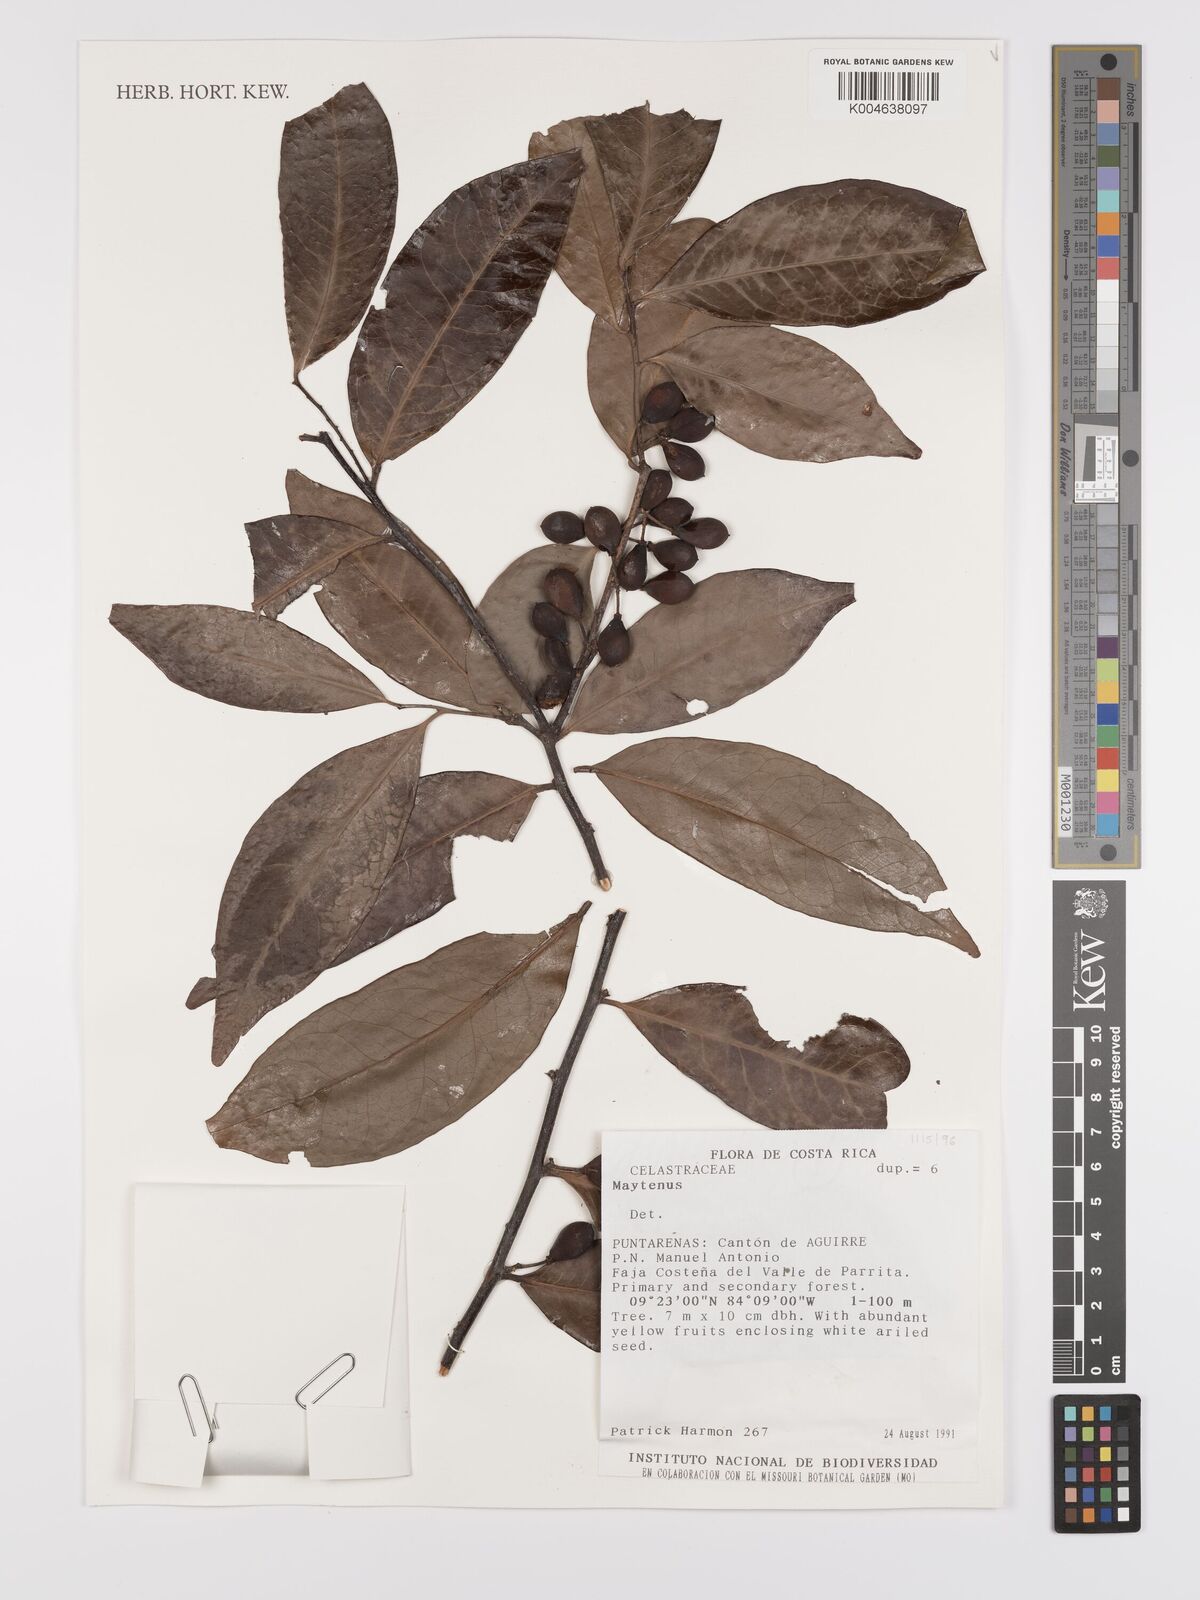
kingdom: Plantae
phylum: Tracheophyta
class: Magnoliopsida
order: Celastrales
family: Celastraceae
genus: Maytenus
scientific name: Maytenus
